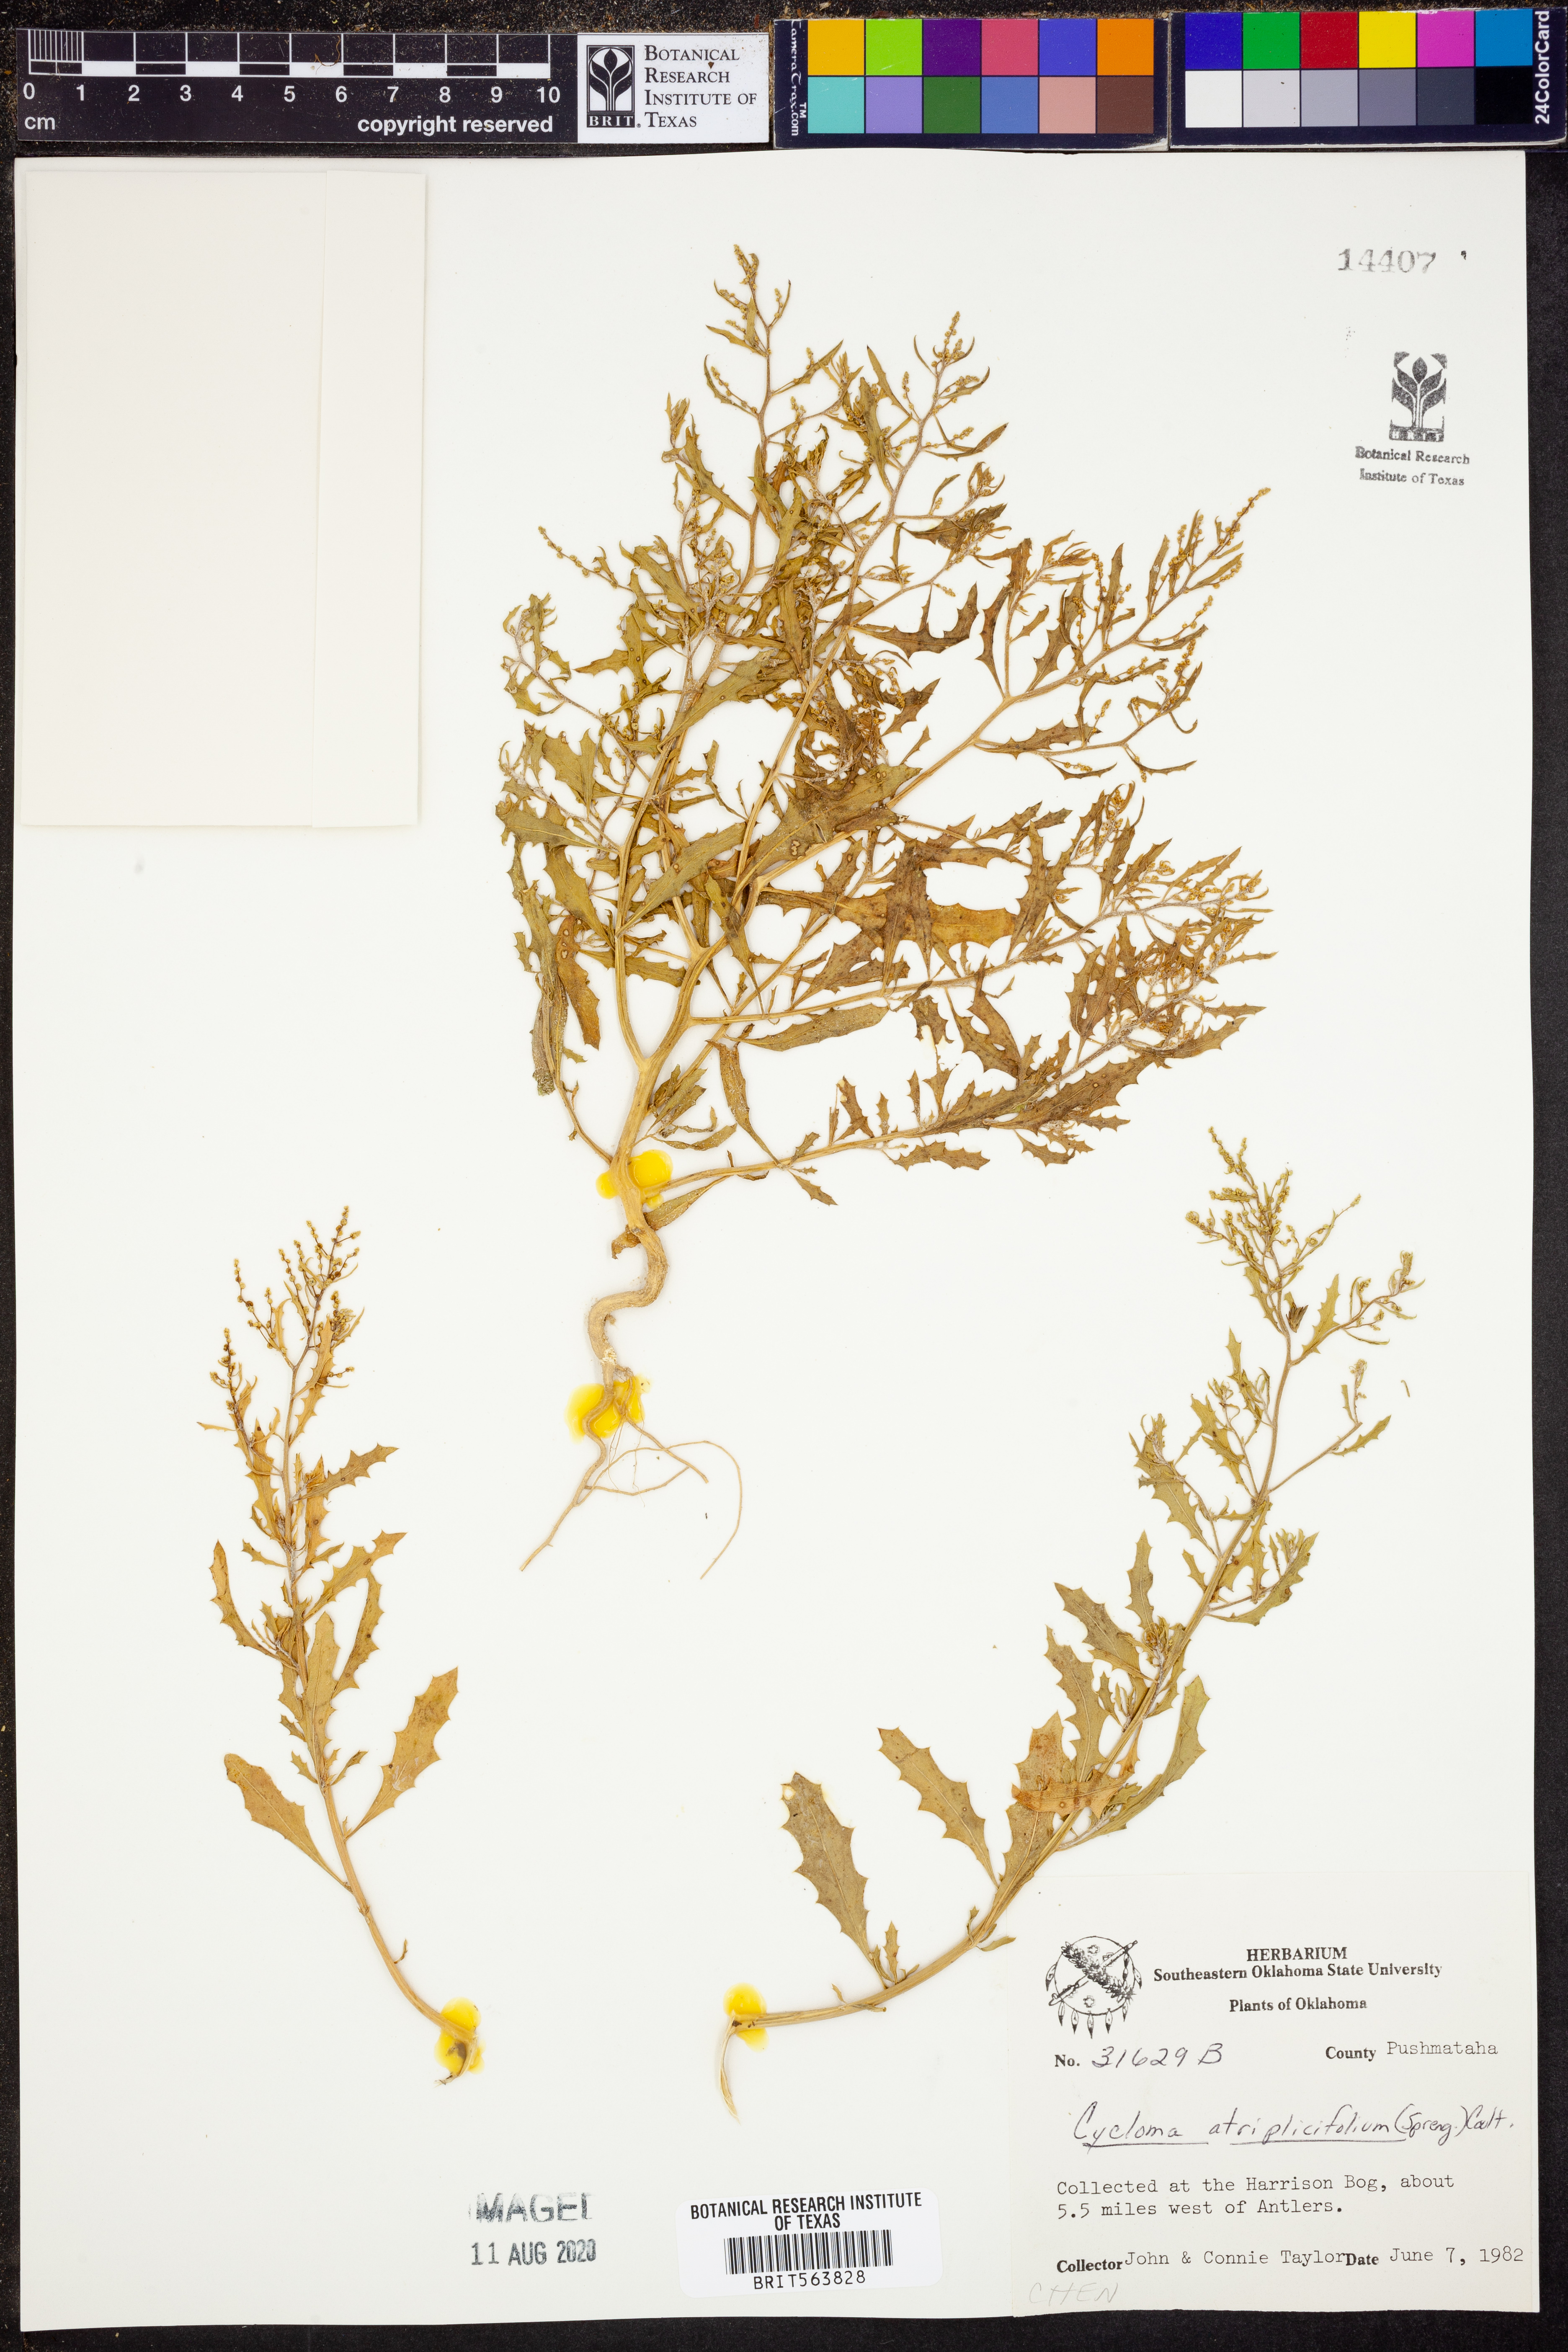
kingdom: Plantae
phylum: Tracheophyta
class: Magnoliopsida
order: Caryophyllales
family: Amaranthaceae
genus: Dysphania
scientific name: Dysphania atriplicifolia
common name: Plains tumbleweed
